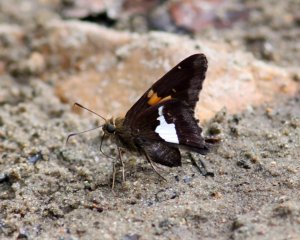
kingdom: Animalia
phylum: Arthropoda
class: Insecta
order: Lepidoptera
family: Hesperiidae
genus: Epargyreus
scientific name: Epargyreus clarus
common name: Silver-spotted Skipper
